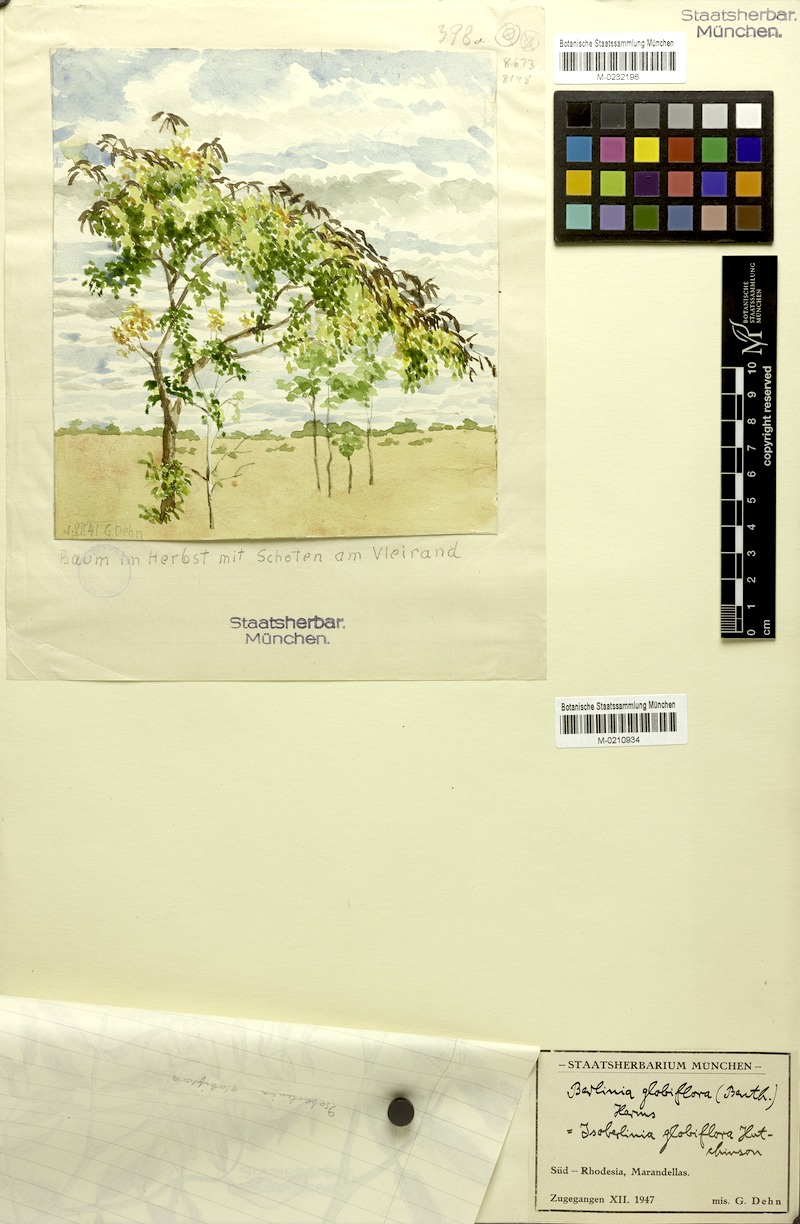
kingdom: Plantae
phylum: Tracheophyta
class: Magnoliopsida
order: Fabales
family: Fabaceae
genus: Julbernardia
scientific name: Julbernardia globiflora
